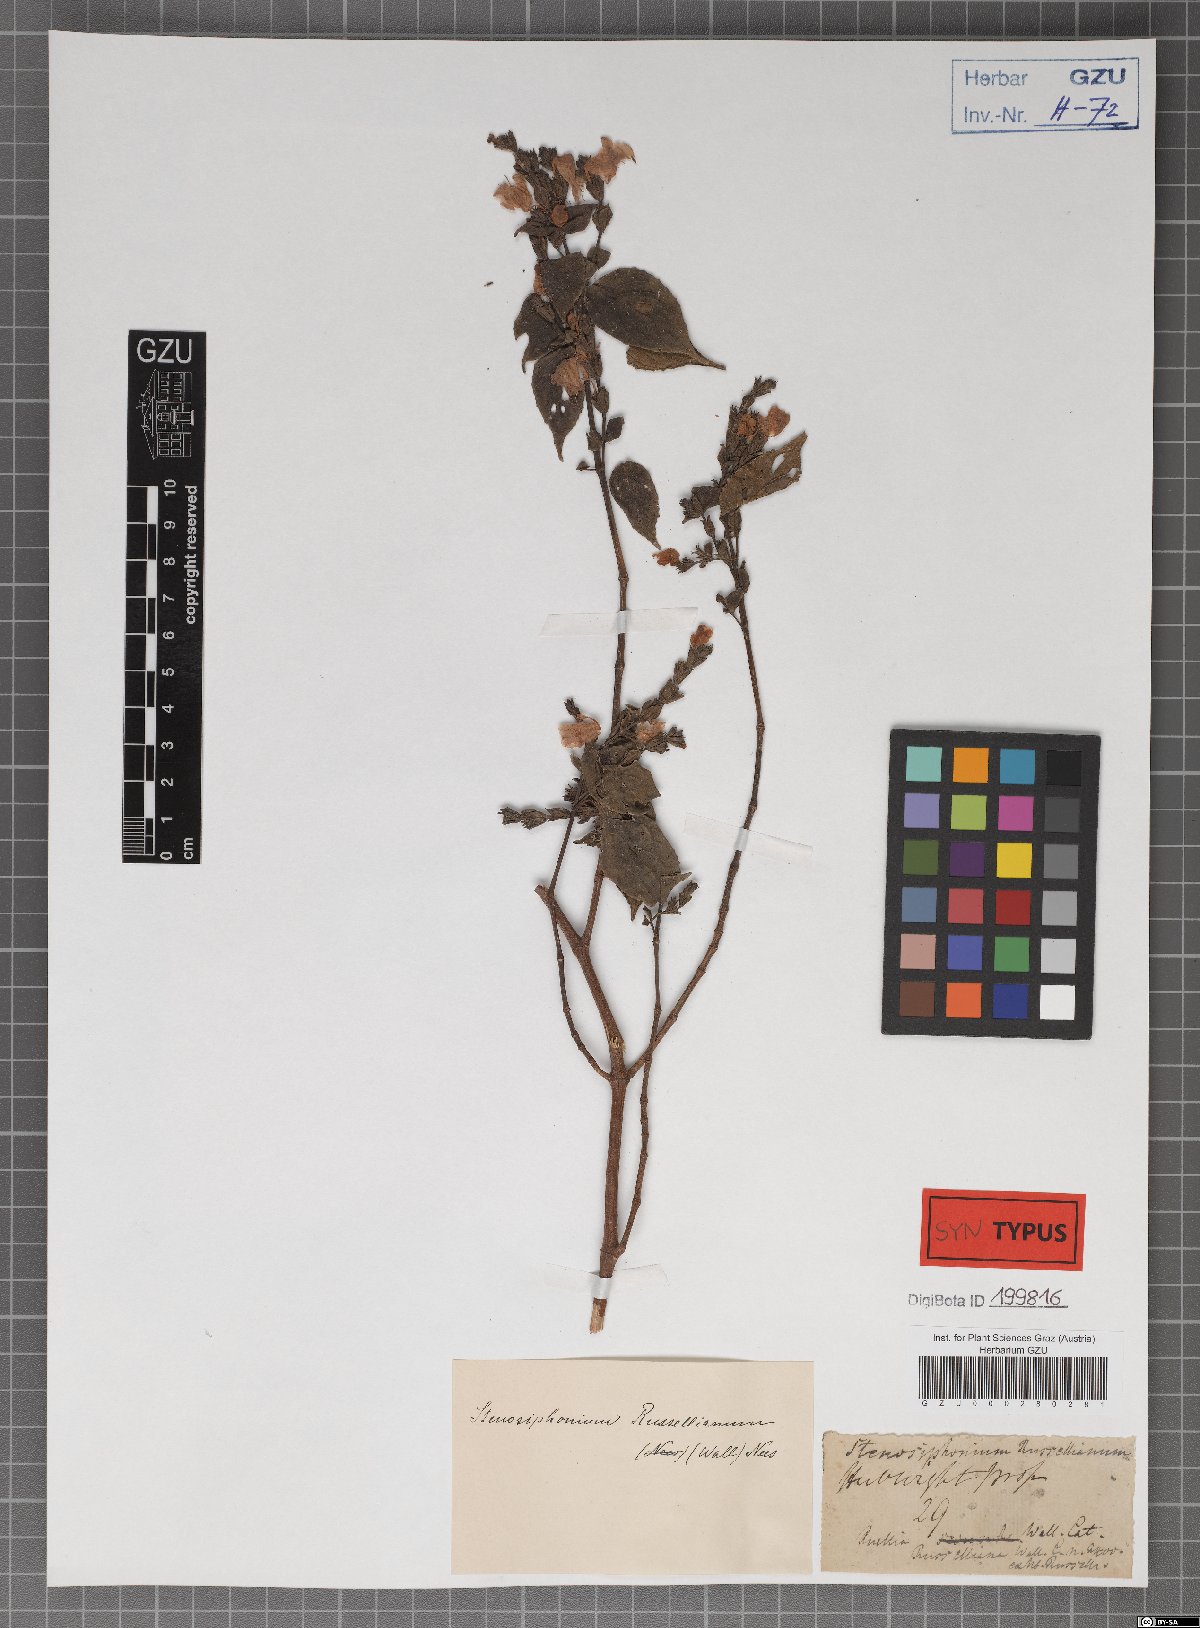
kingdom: Plantae
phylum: Tracheophyta
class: Magnoliopsida
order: Lamiales
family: Acanthaceae
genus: Strobilanthes
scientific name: Strobilanthes cordifolia
